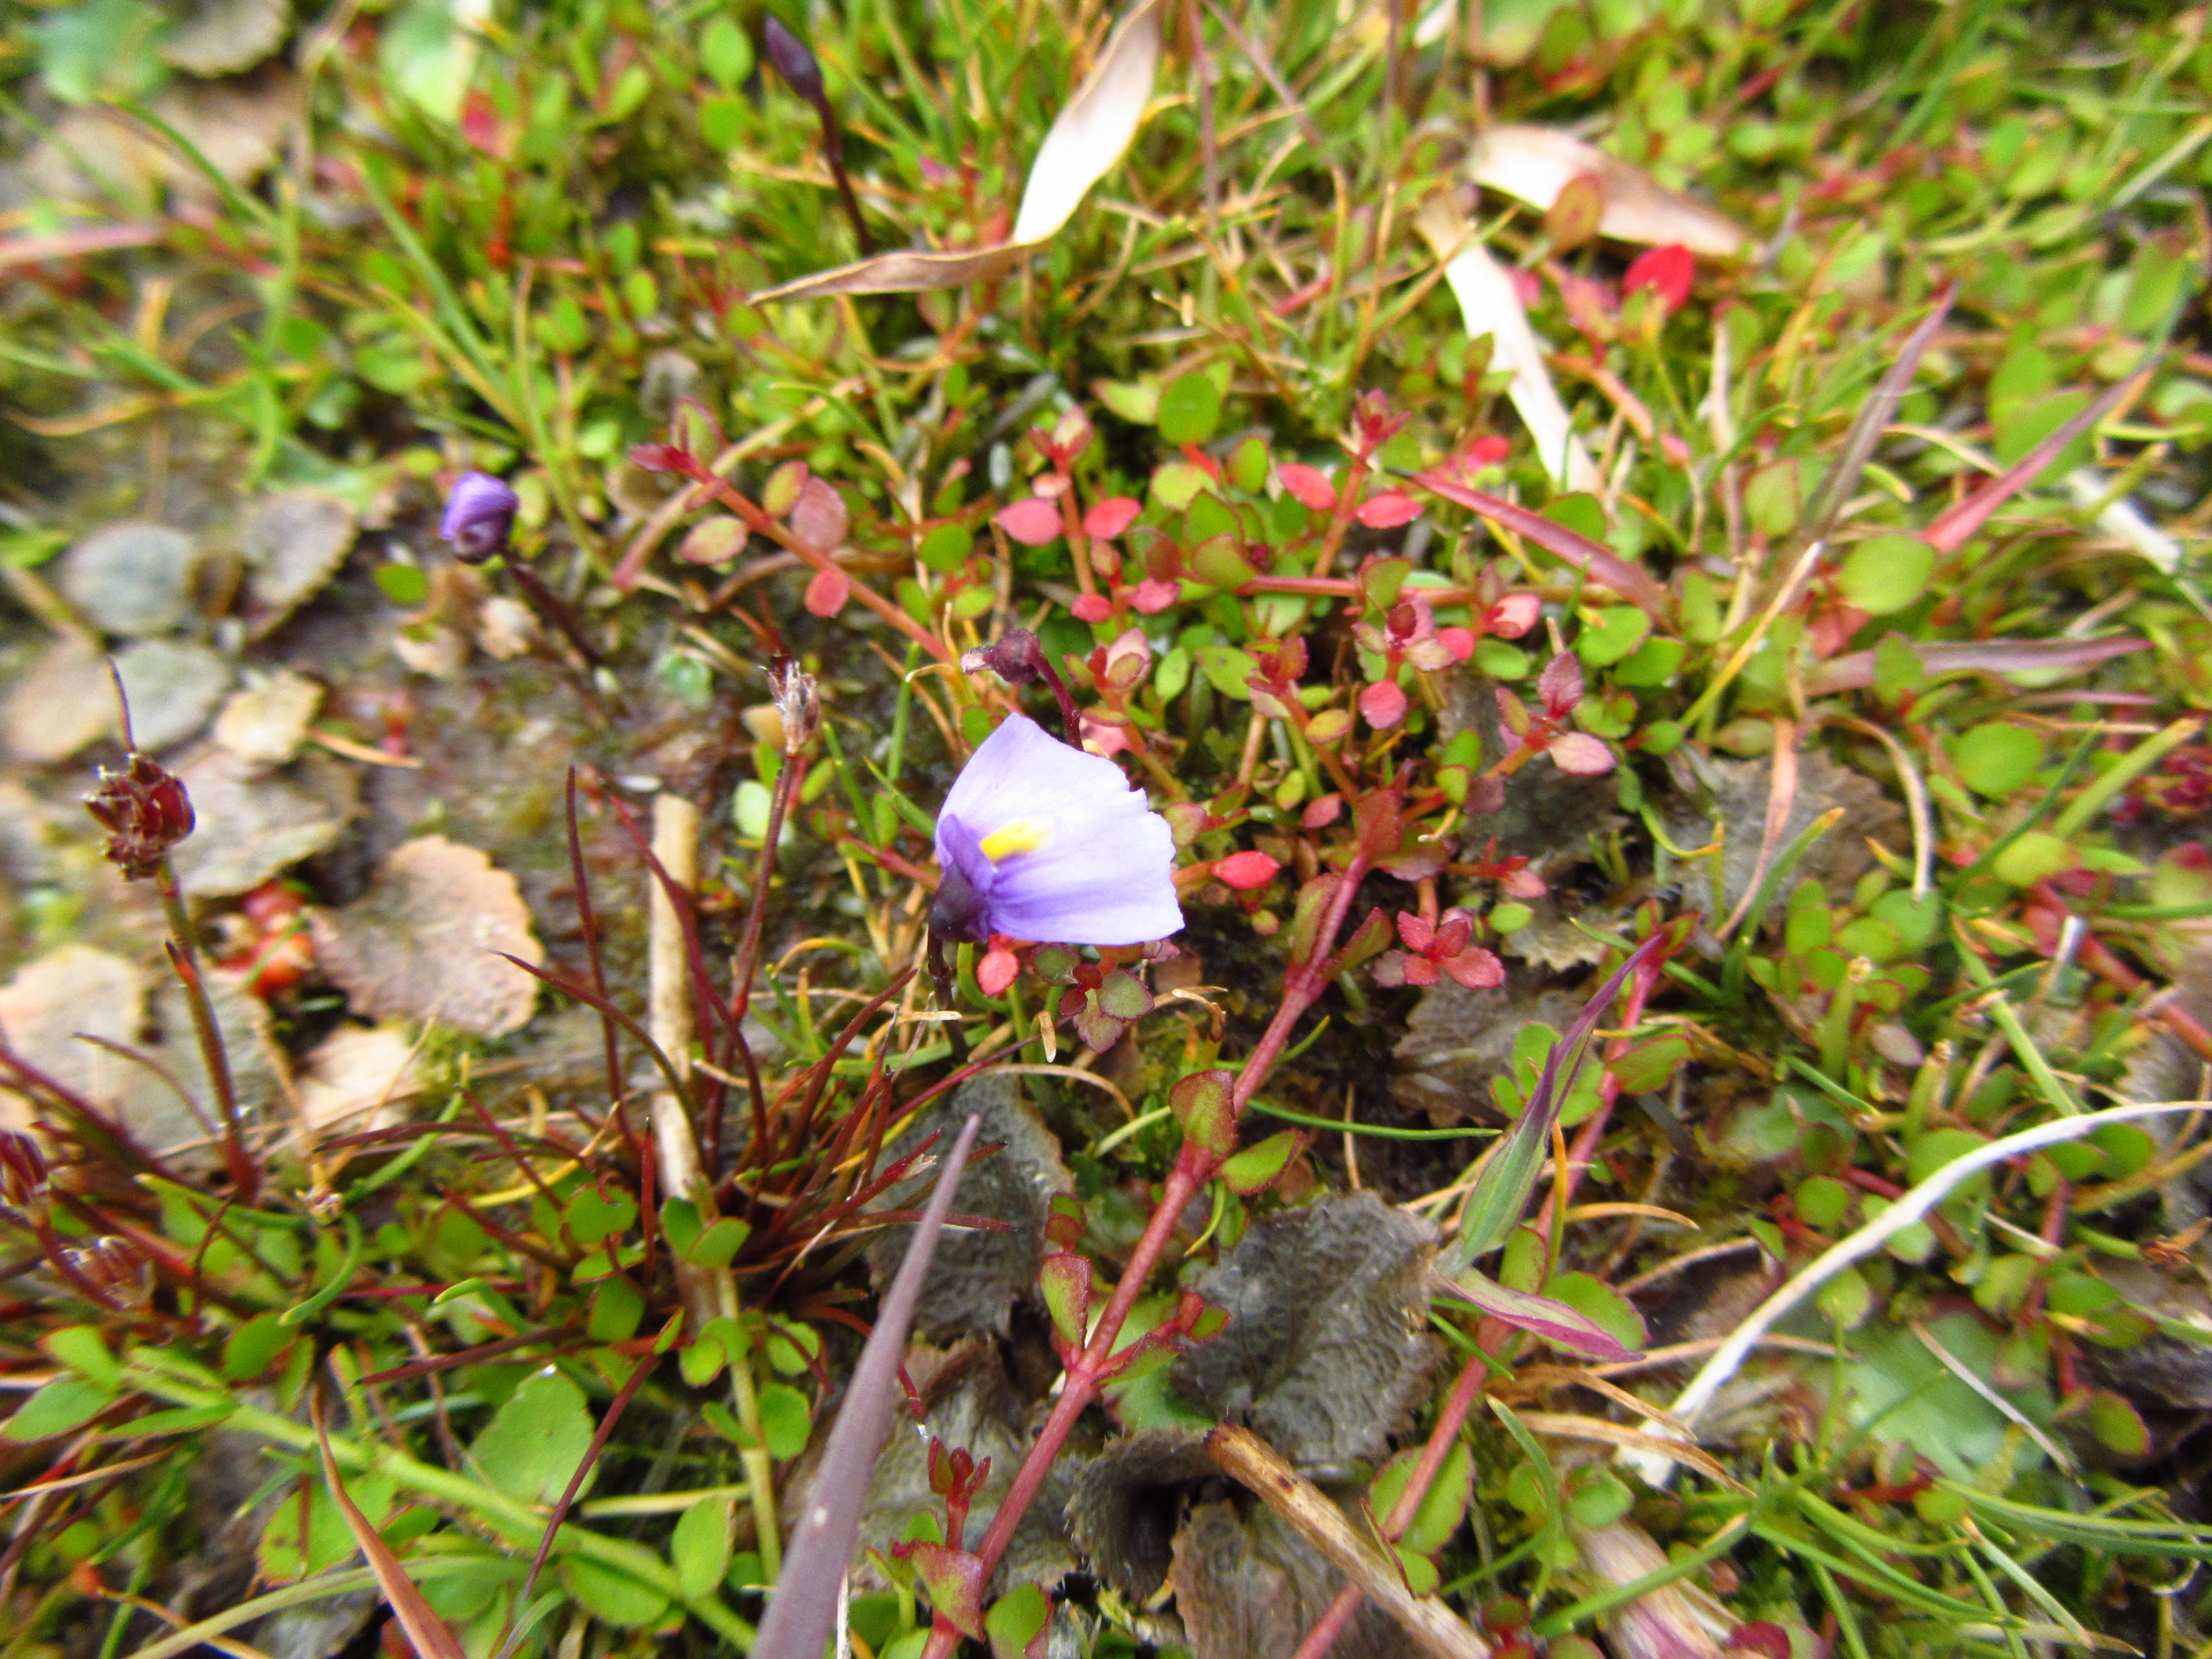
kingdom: Plantae
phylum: Tracheophyta
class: Magnoliopsida
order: Lamiales
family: Lentibulariaceae
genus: Utricularia
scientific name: Utricularia dichotoma
